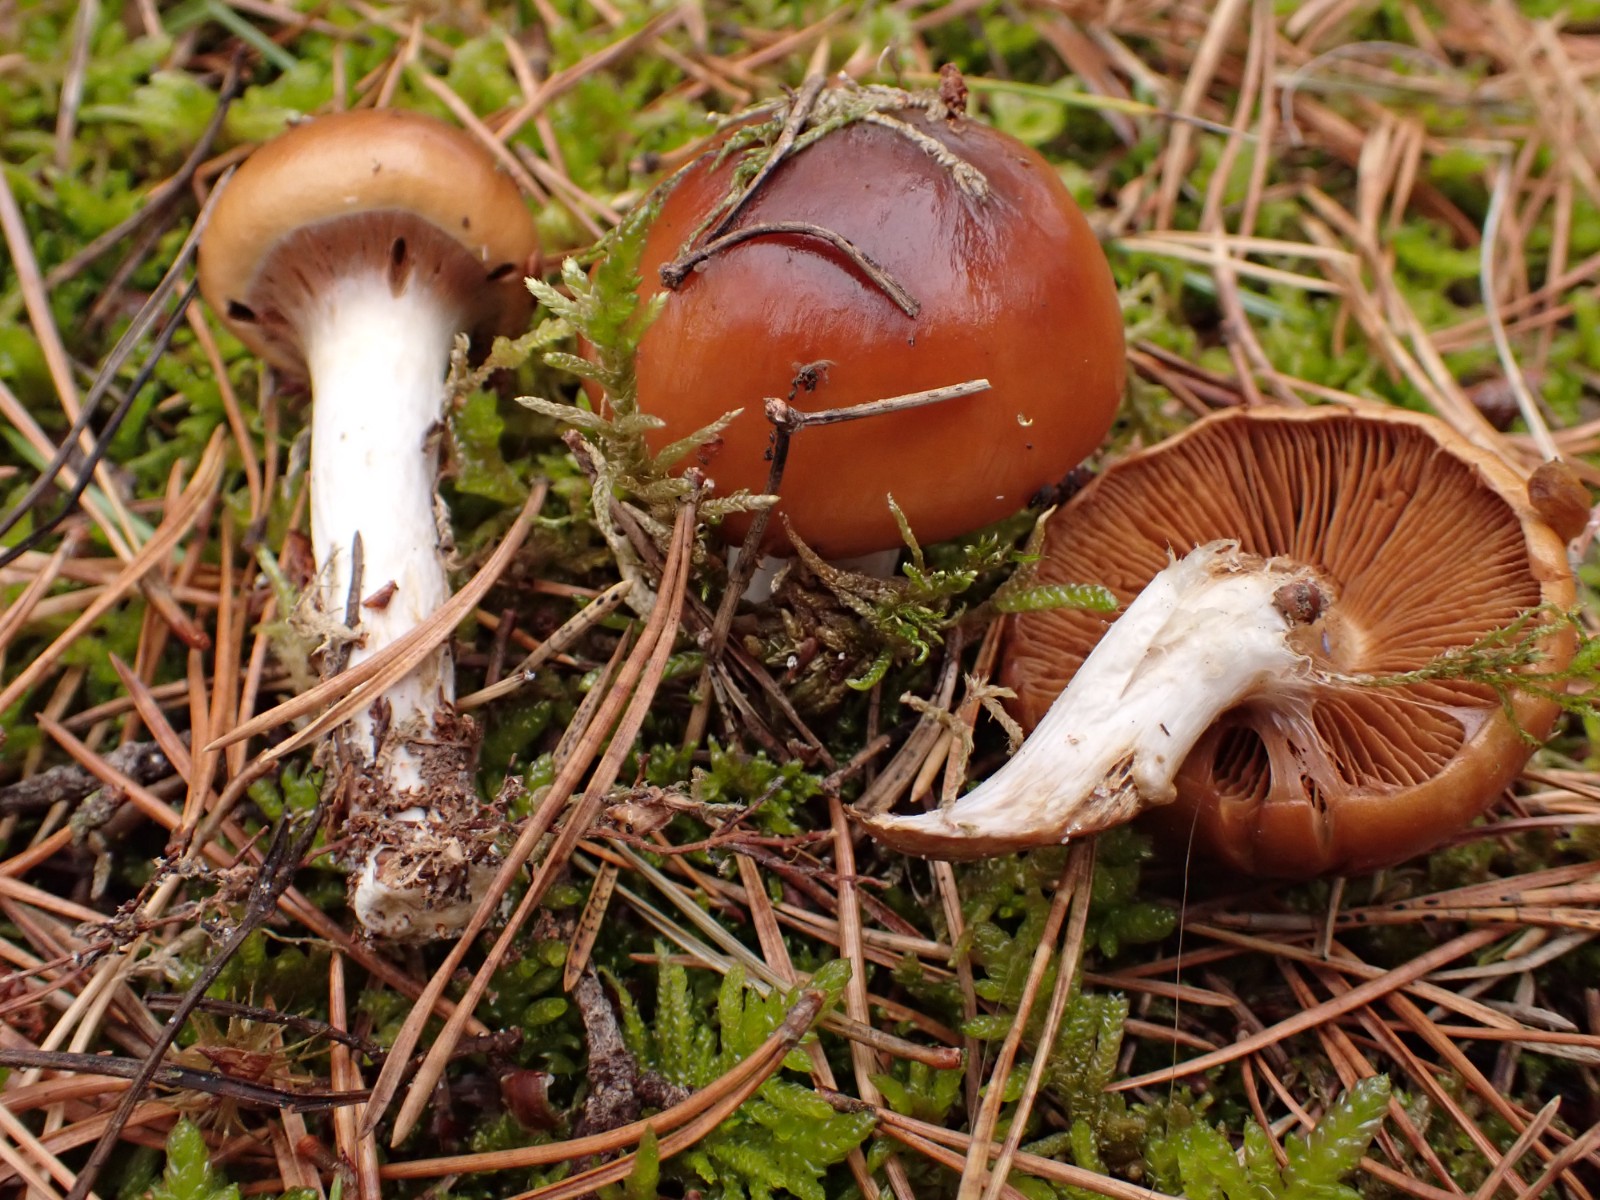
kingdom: Fungi
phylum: Basidiomycota
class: Agaricomycetes
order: Agaricales
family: Cortinariaceae
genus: Cortinarius
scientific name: Cortinarius mucosus
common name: kastaniebrun slørhat
